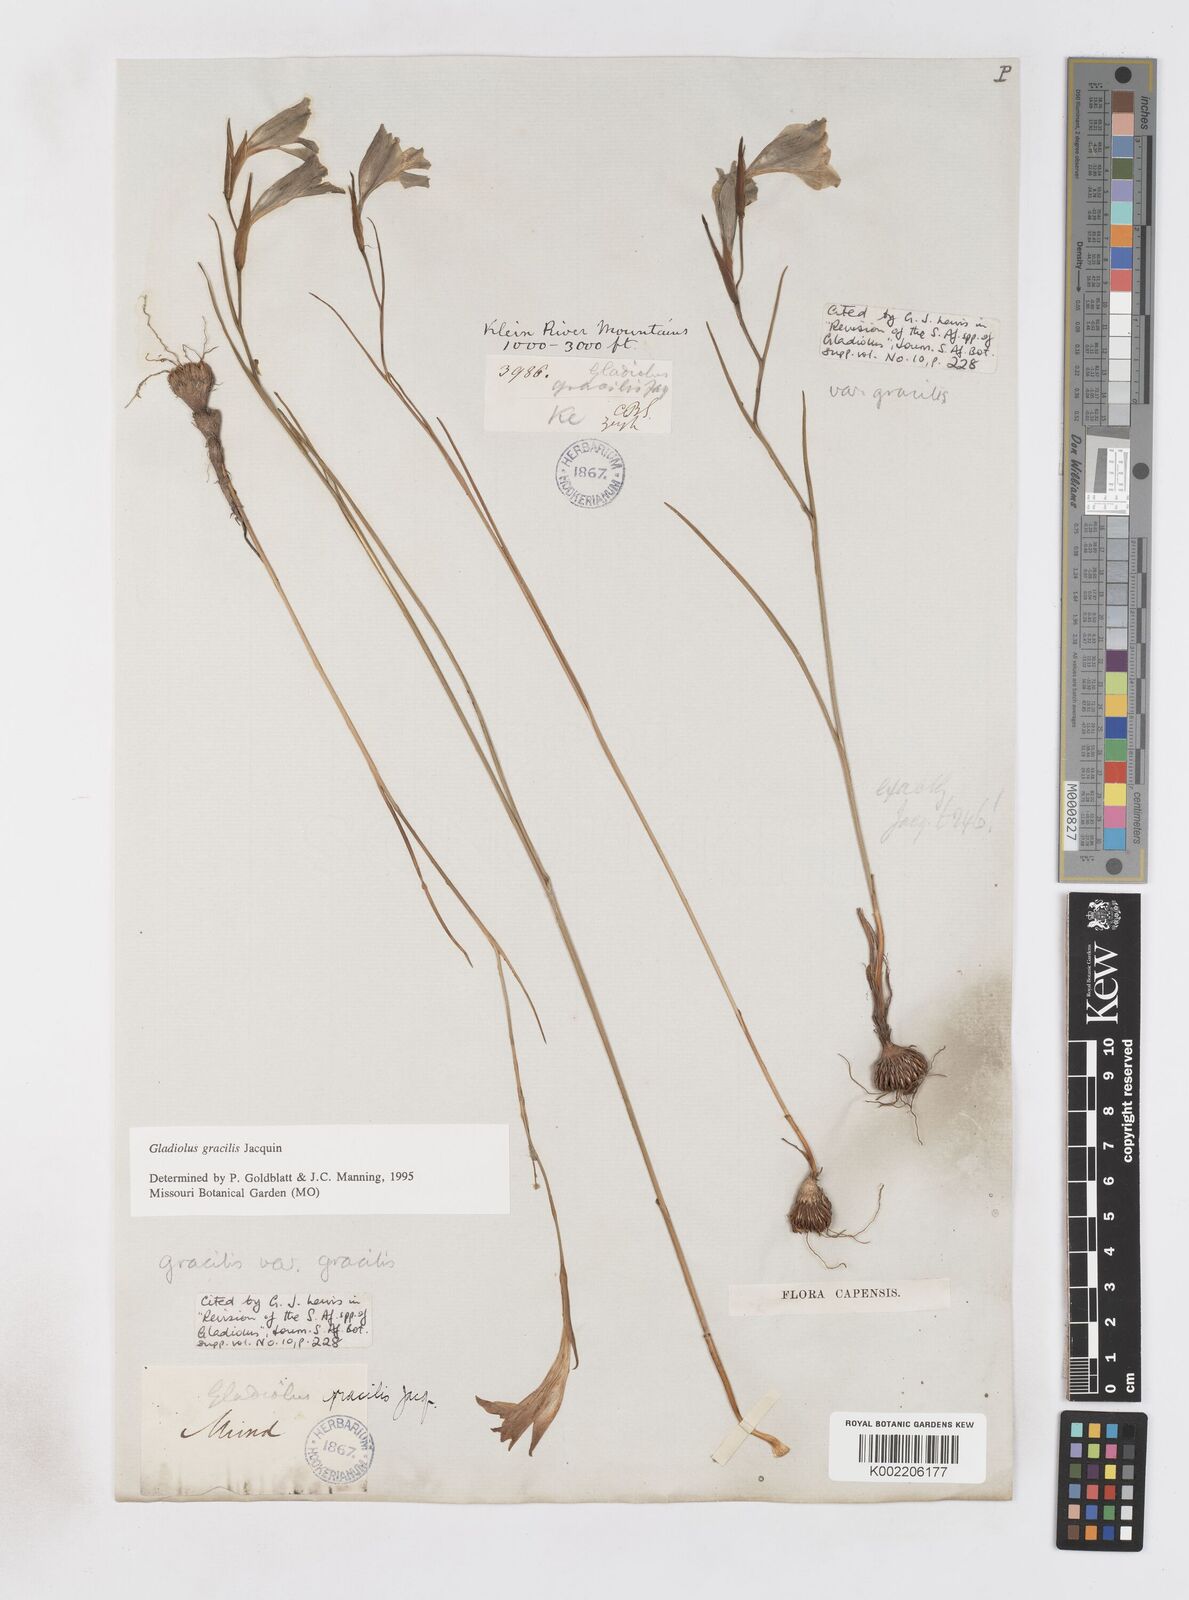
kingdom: Plantae
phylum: Tracheophyta
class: Liliopsida
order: Asparagales
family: Iridaceae
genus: Gladiolus
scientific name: Gladiolus gracilis
